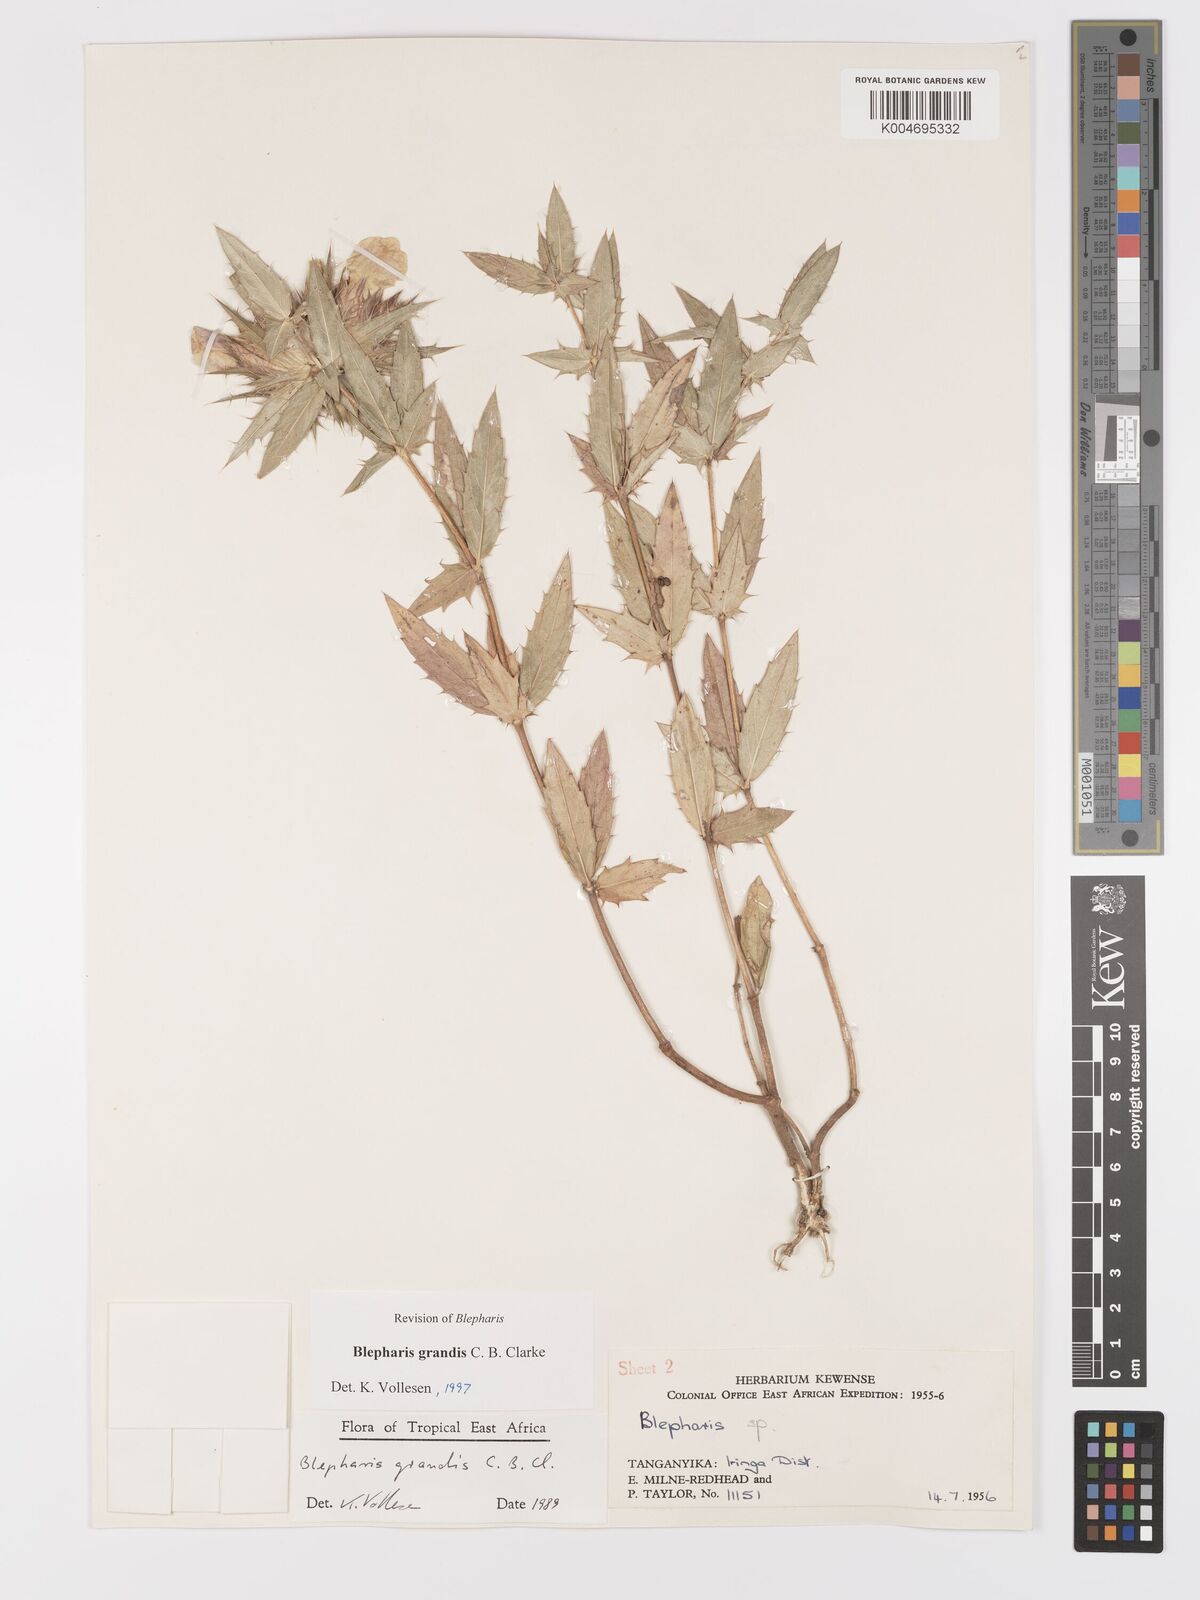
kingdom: Plantae
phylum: Tracheophyta
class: Magnoliopsida
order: Lamiales
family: Acanthaceae
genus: Blepharis
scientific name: Blepharis grandis
